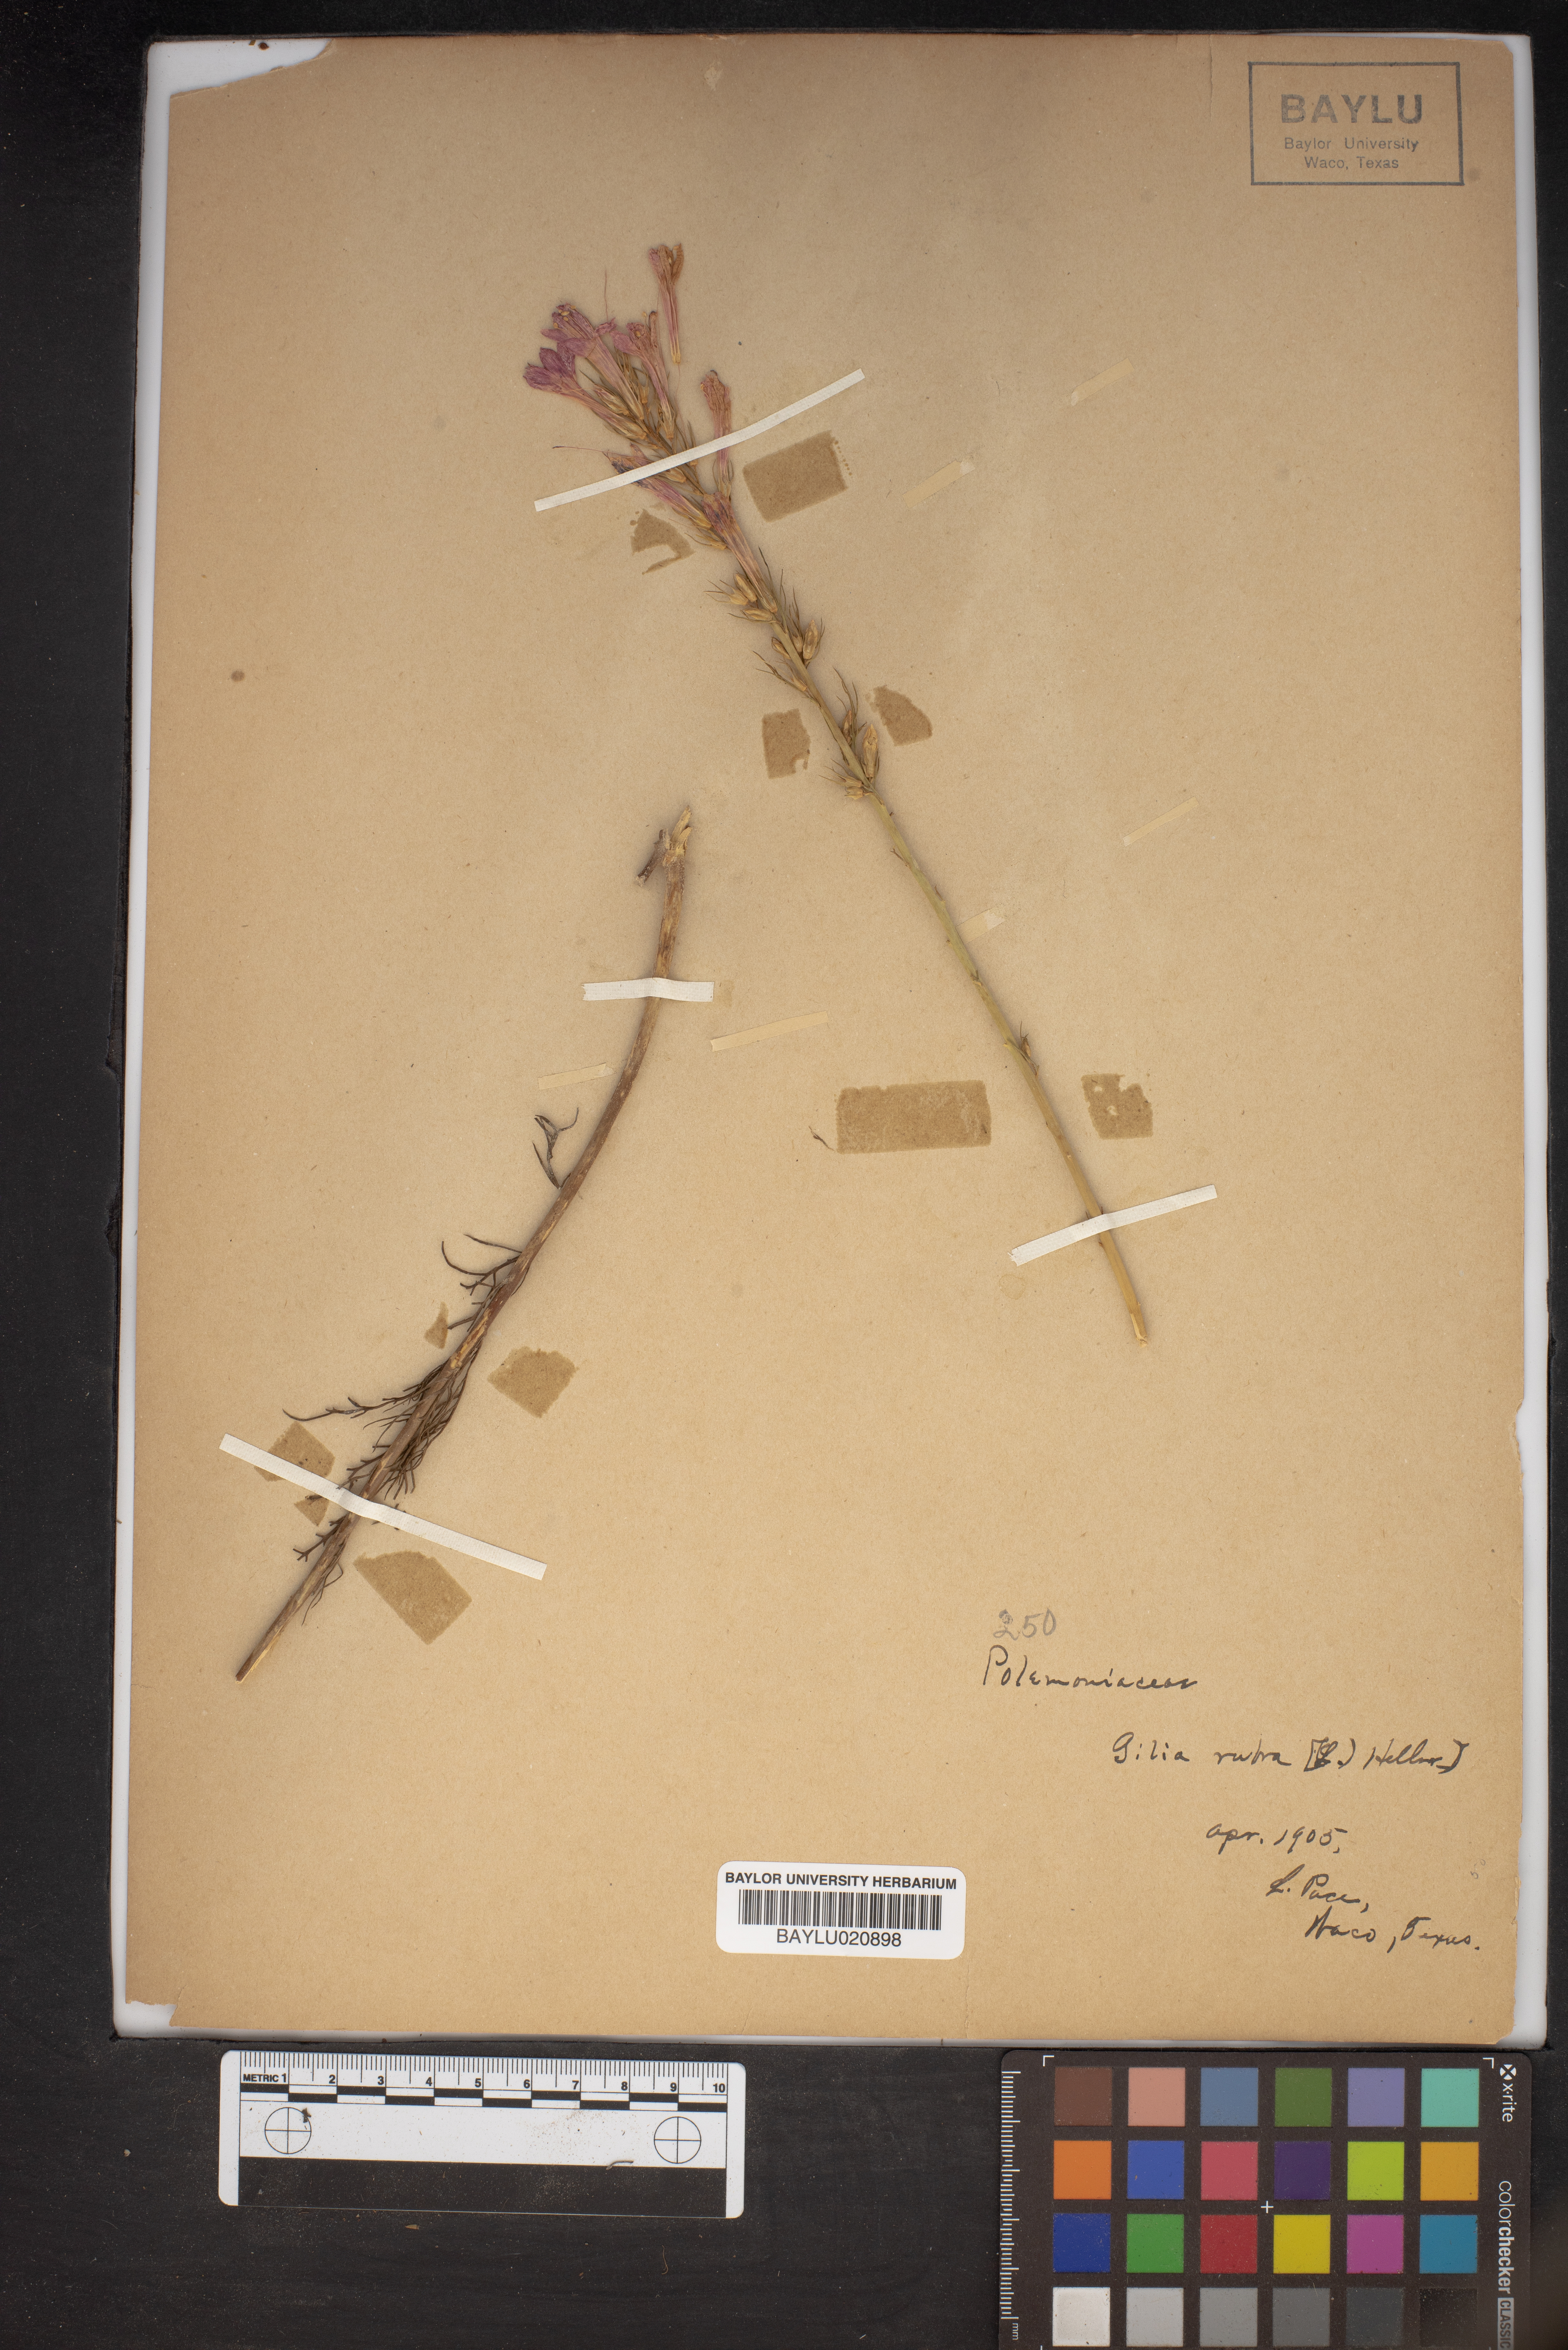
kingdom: Plantae
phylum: Tracheophyta
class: Magnoliopsida
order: Ericales
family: Polemoniaceae
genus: Ipomopsis
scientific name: Ipomopsis rubra
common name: Skyrocket
